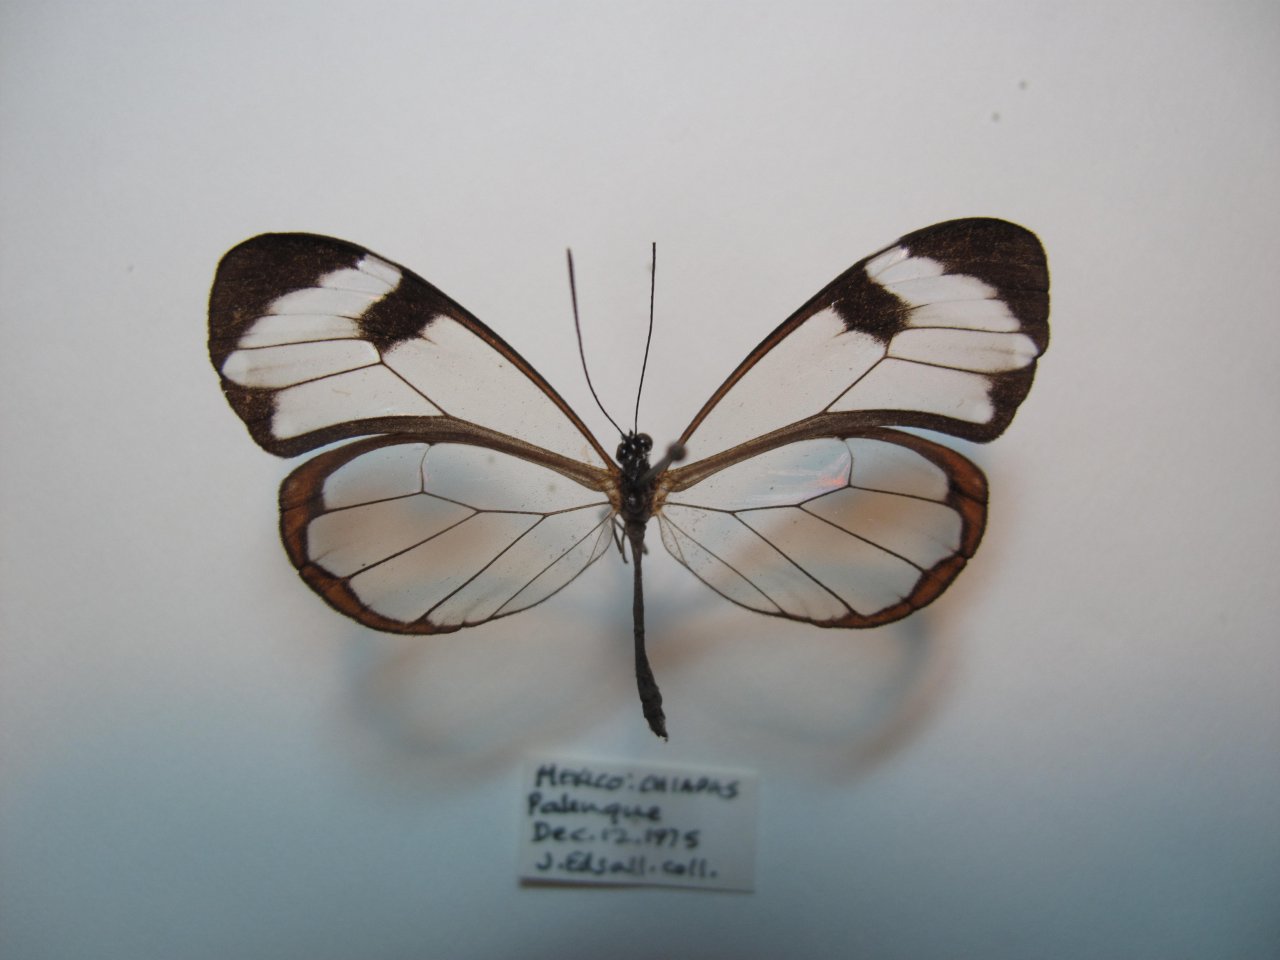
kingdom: Animalia
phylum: Arthropoda
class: Insecta
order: Lepidoptera
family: Nymphalidae
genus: Greta
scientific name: Greta morgane
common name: Thick-tipped Greta
